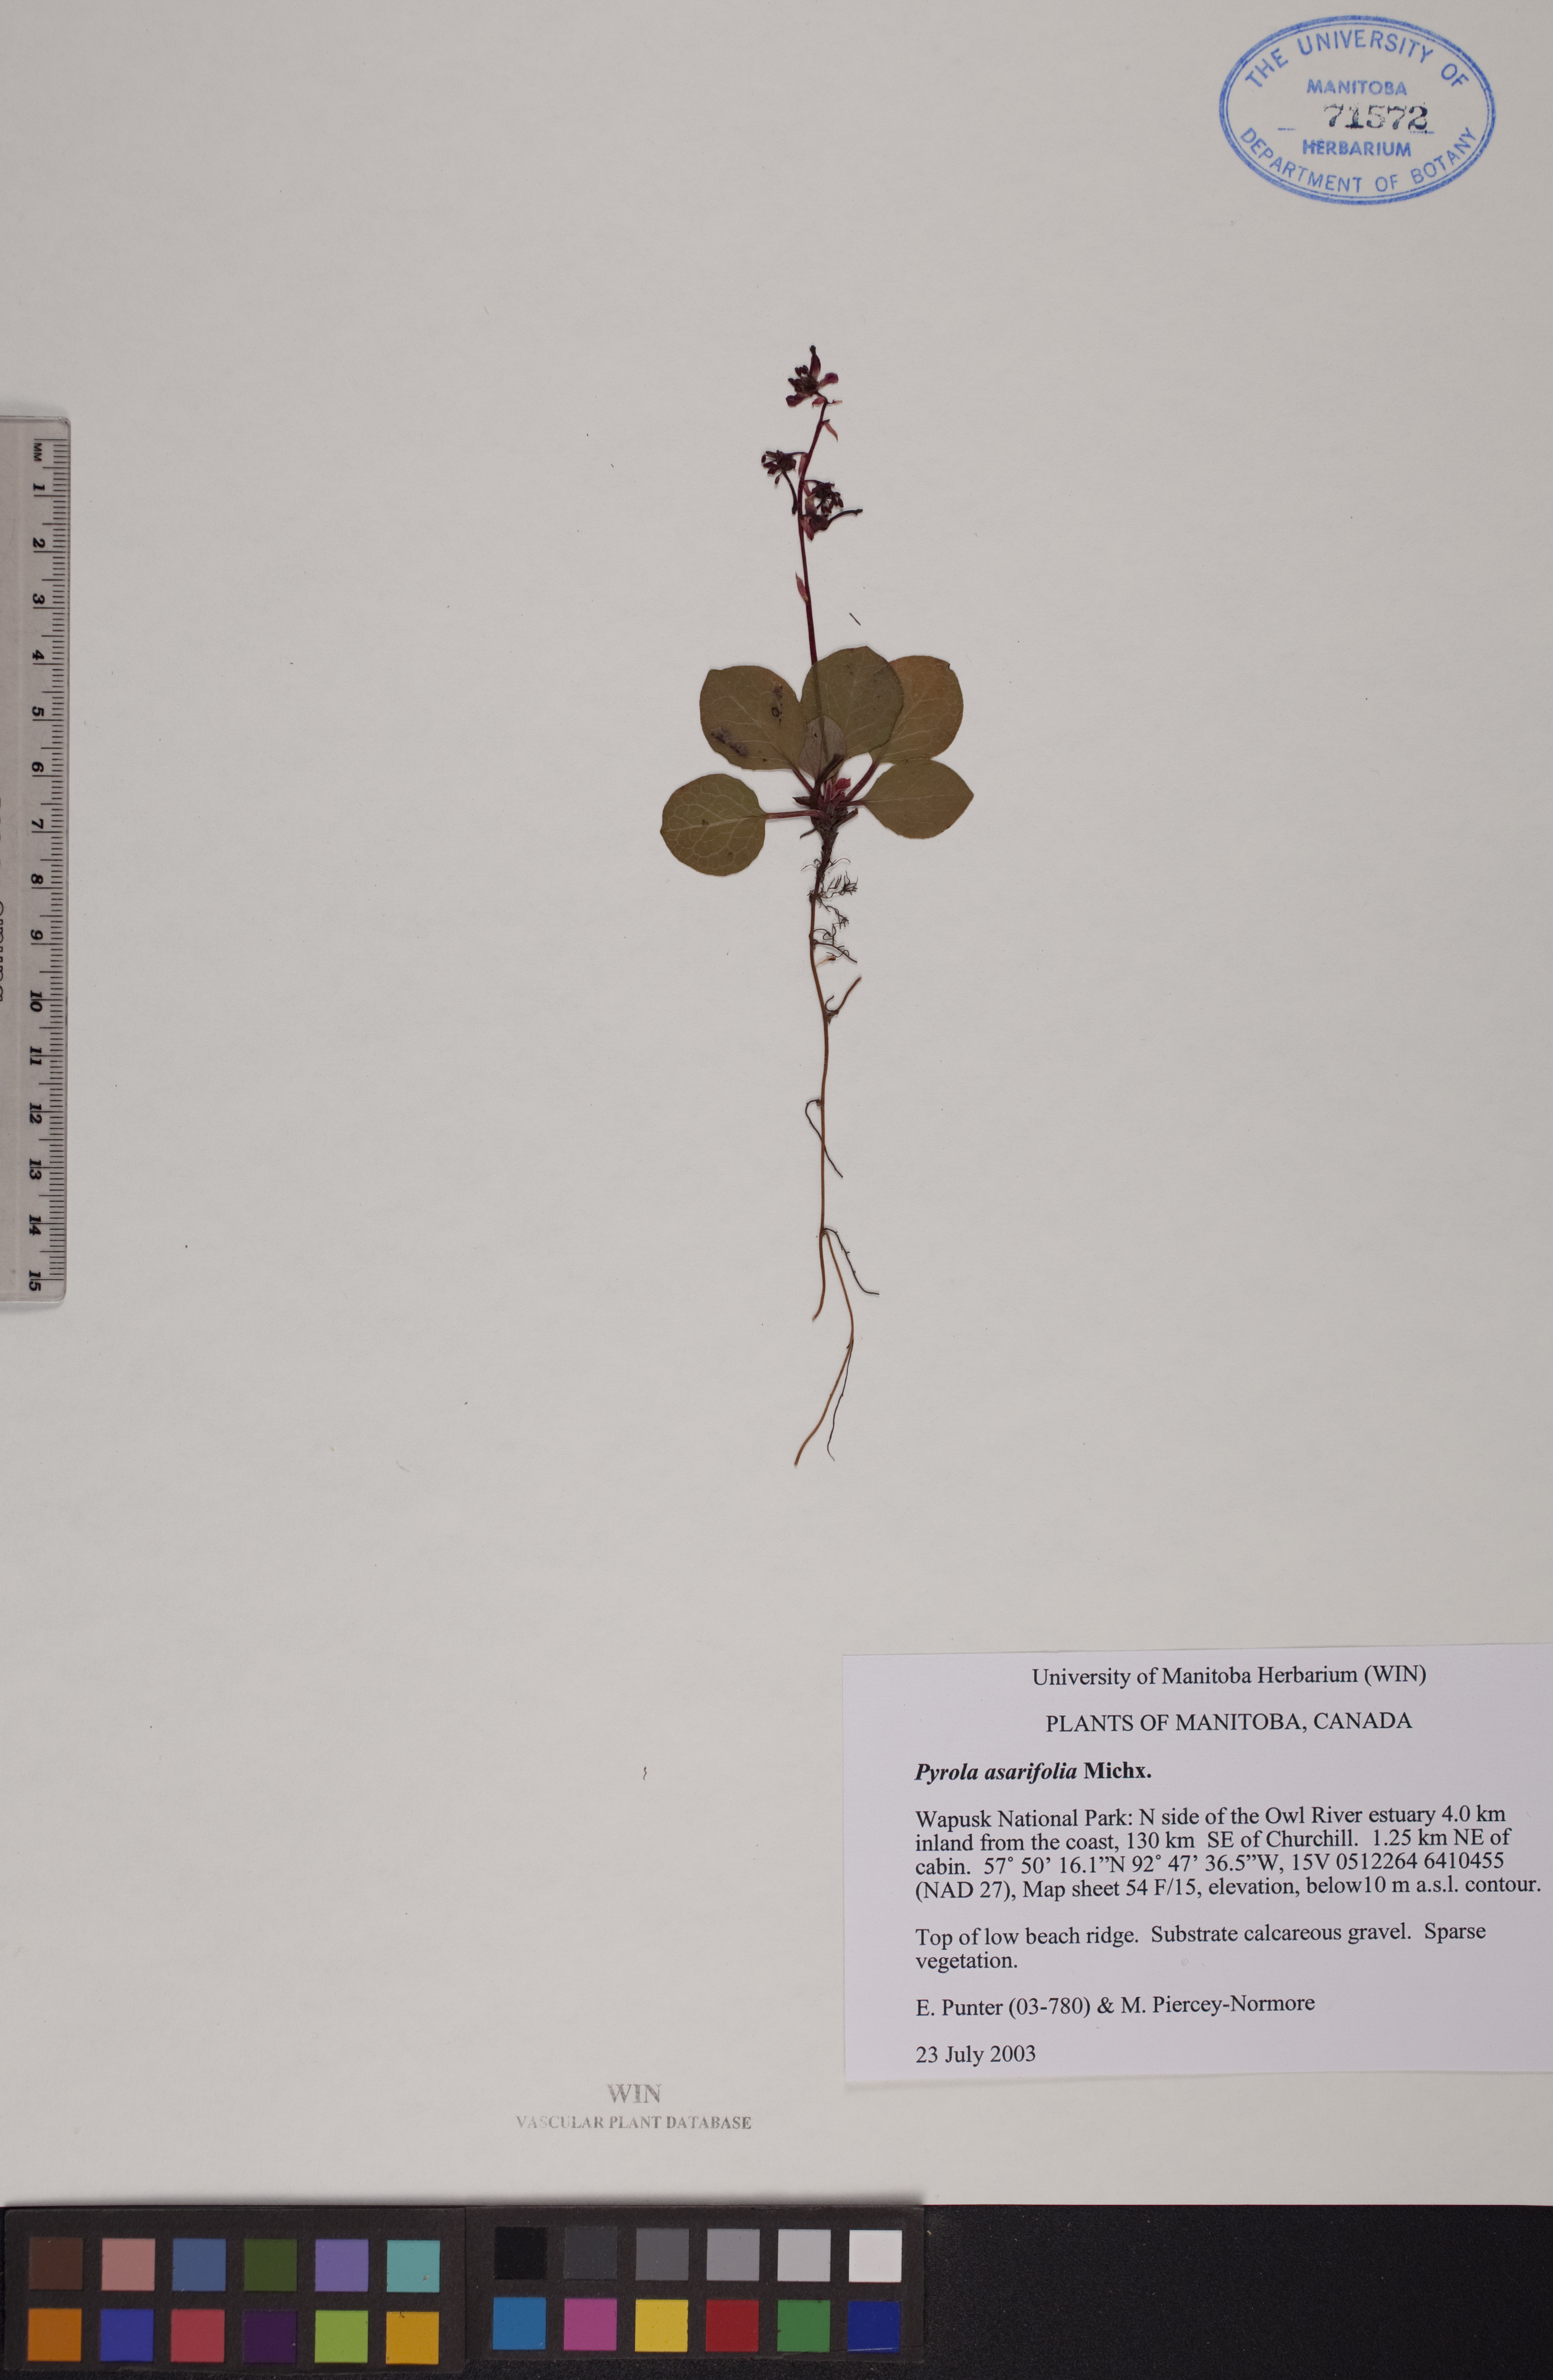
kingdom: Plantae
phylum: Tracheophyta
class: Magnoliopsida
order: Ericales
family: Ericaceae
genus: Pyrola
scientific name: Pyrola asarifolia
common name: Bog wintergreen
